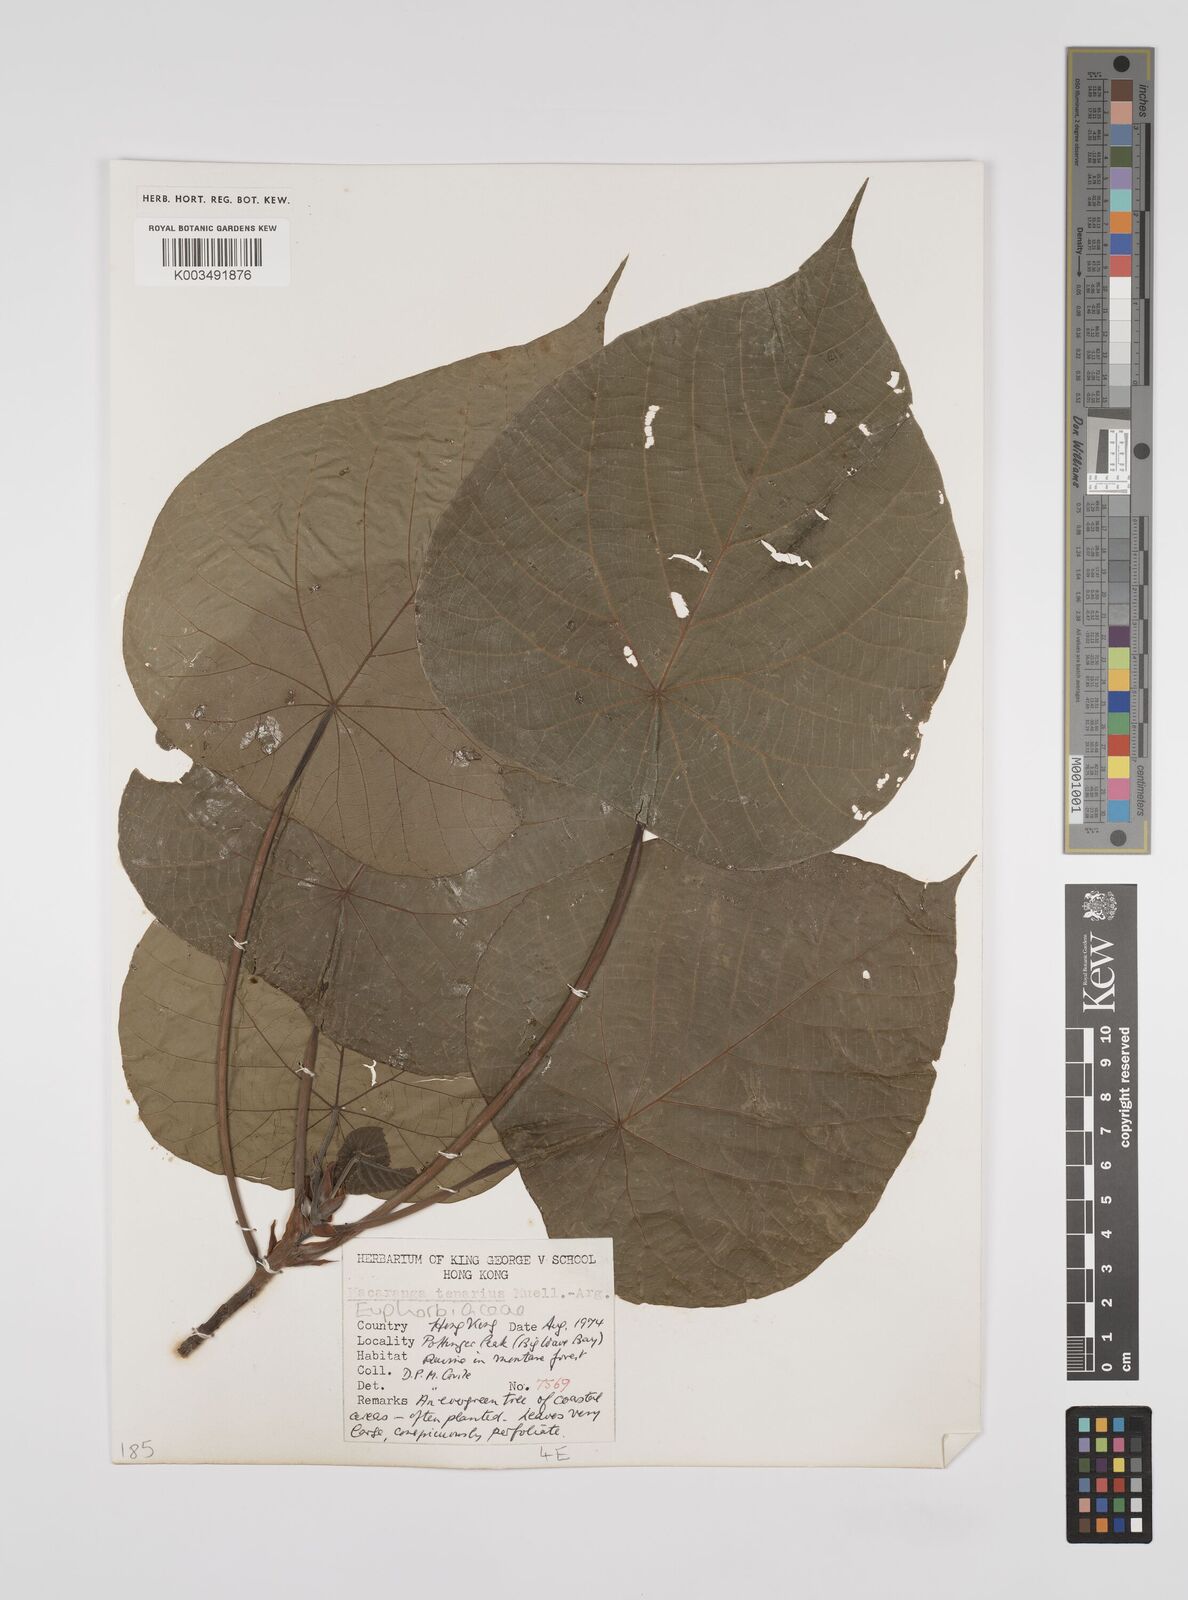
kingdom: Plantae
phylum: Tracheophyta
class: Magnoliopsida
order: Malpighiales
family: Euphorbiaceae
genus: Macaranga
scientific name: Macaranga tanarius
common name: Parasol leaf tree
